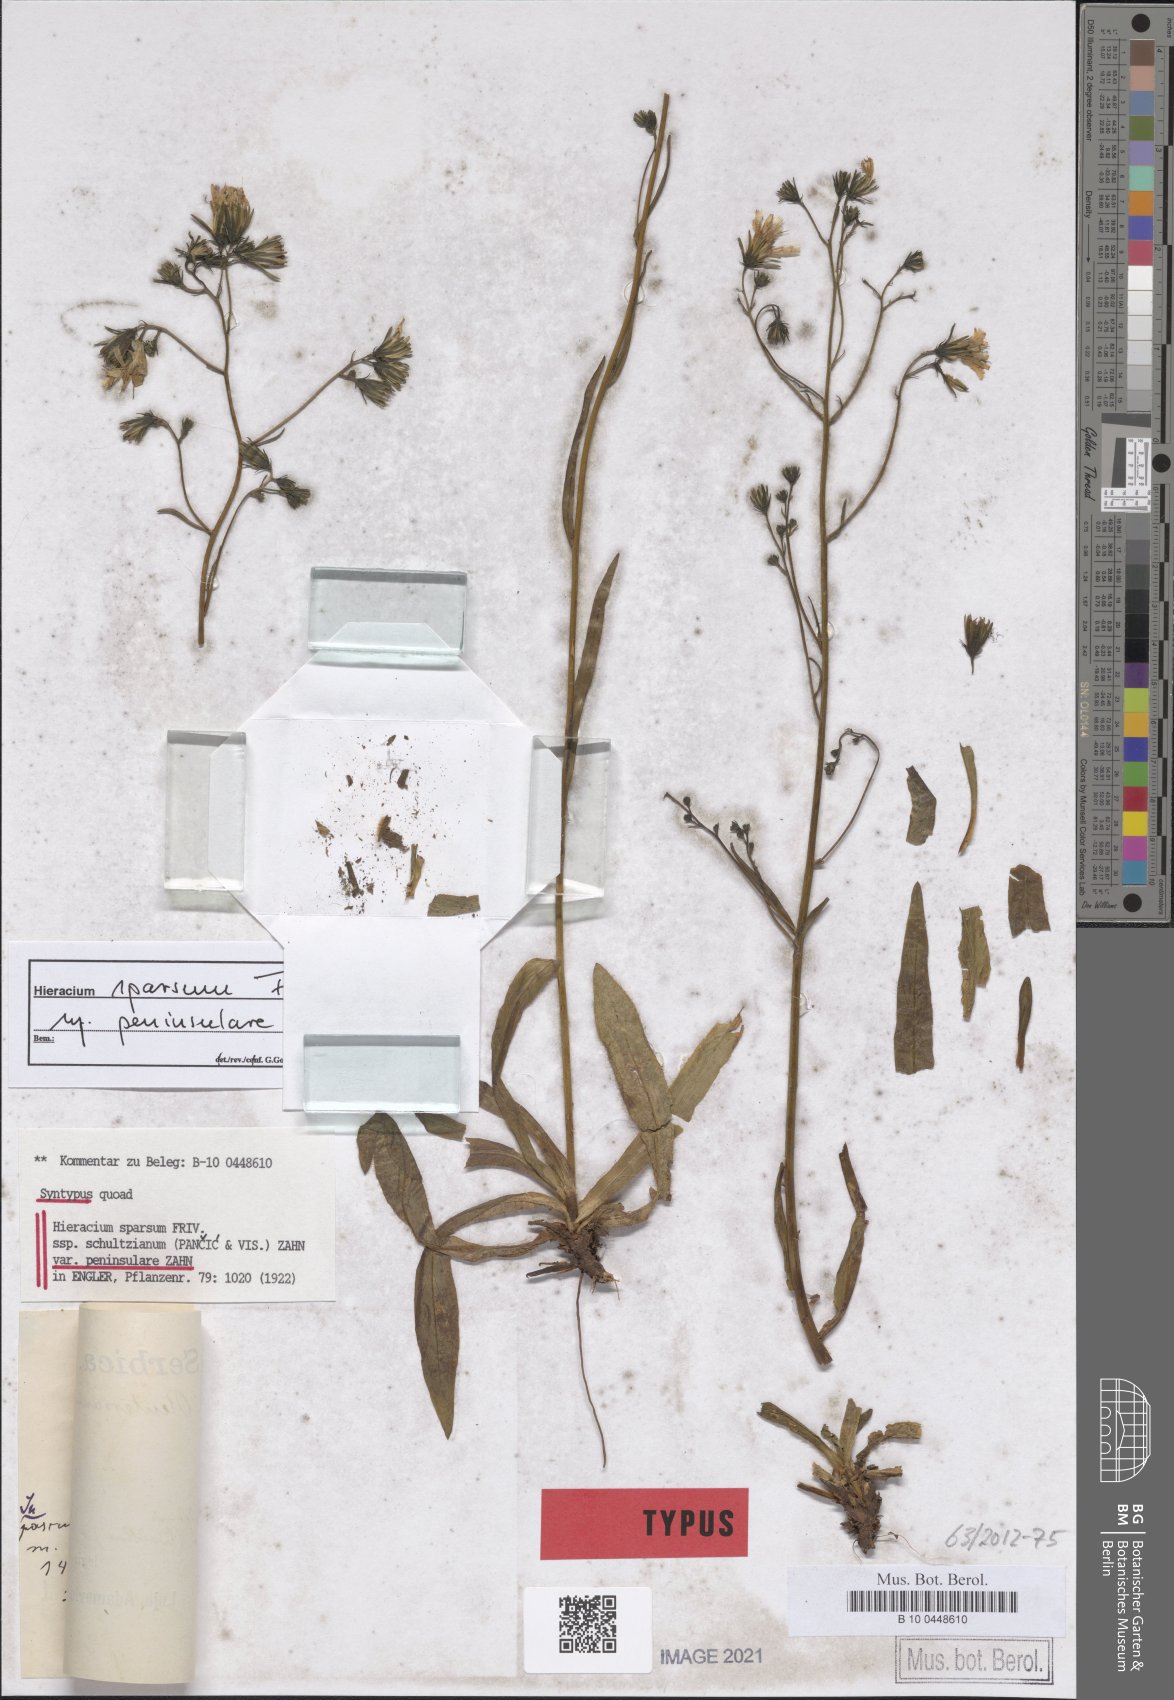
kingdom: Plantae
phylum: Tracheophyta
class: Magnoliopsida
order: Asterales
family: Asteraceae
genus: Hieracium
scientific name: Hieracium sparsum
